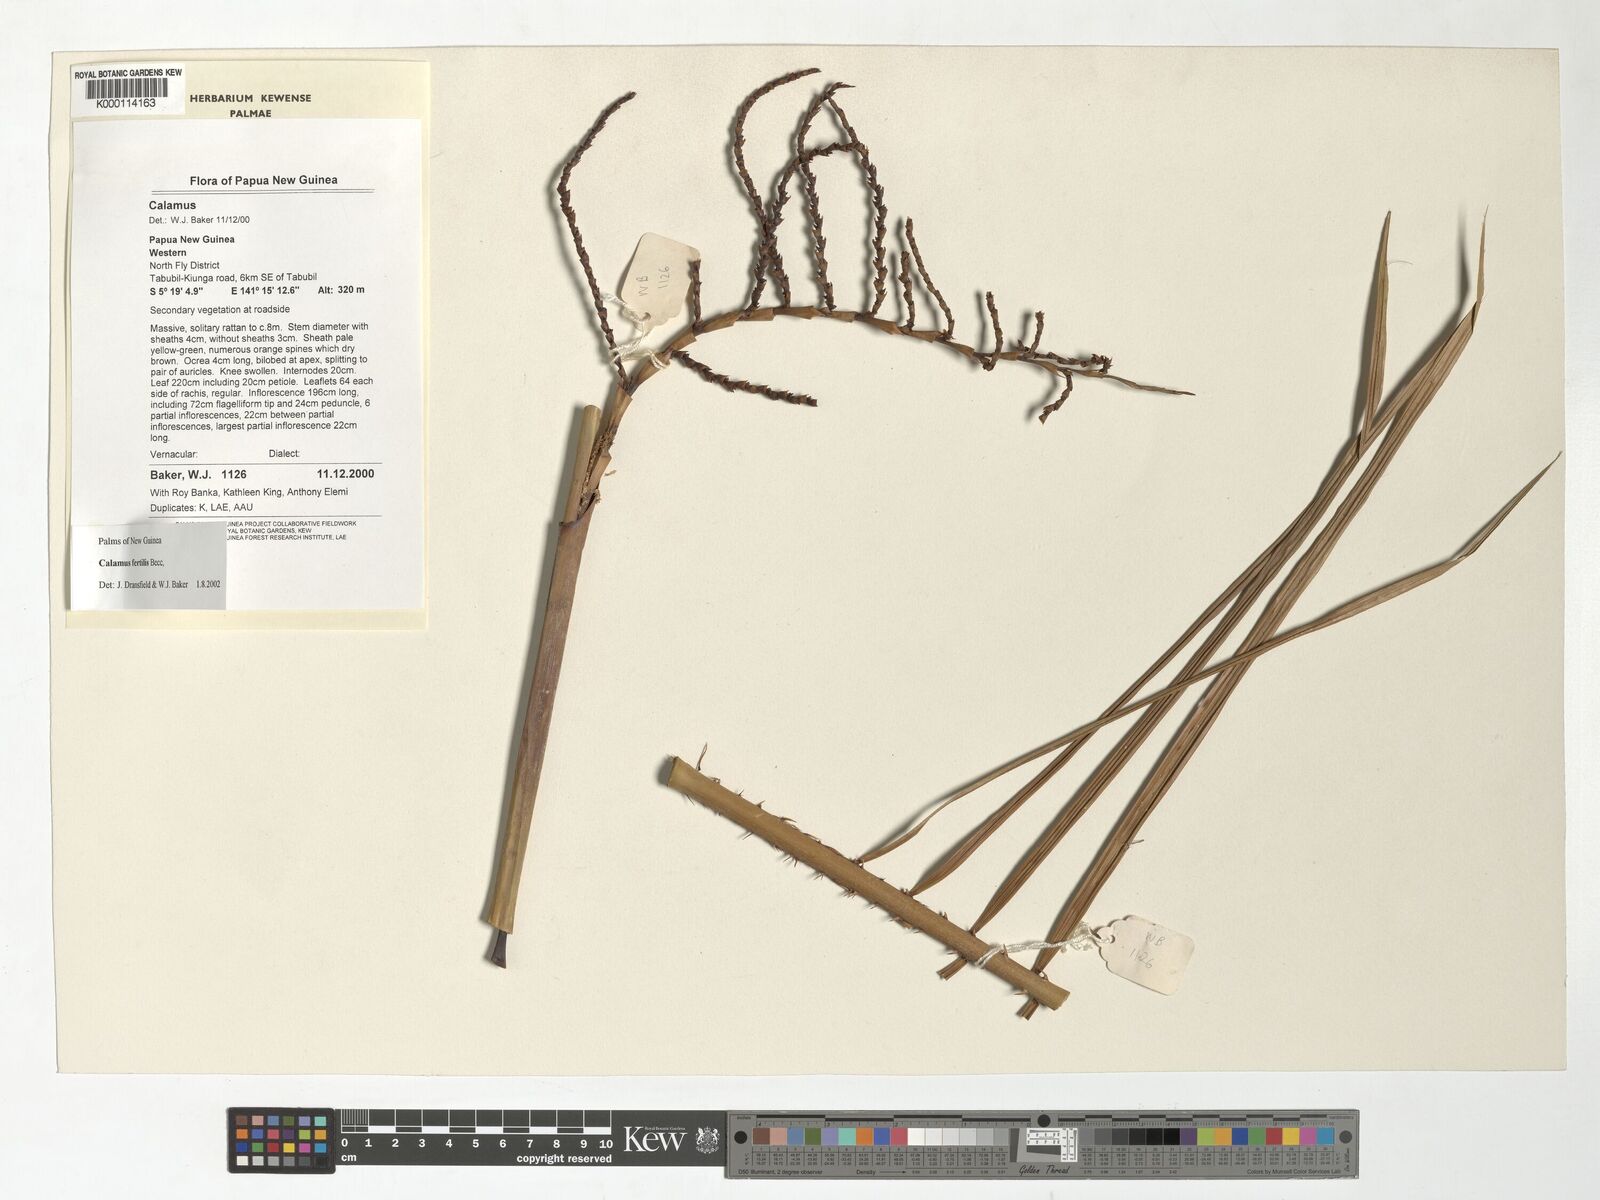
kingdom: Plantae
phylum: Tracheophyta
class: Liliopsida
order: Arecales
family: Arecaceae
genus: Calamus
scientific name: Calamus fertilis
